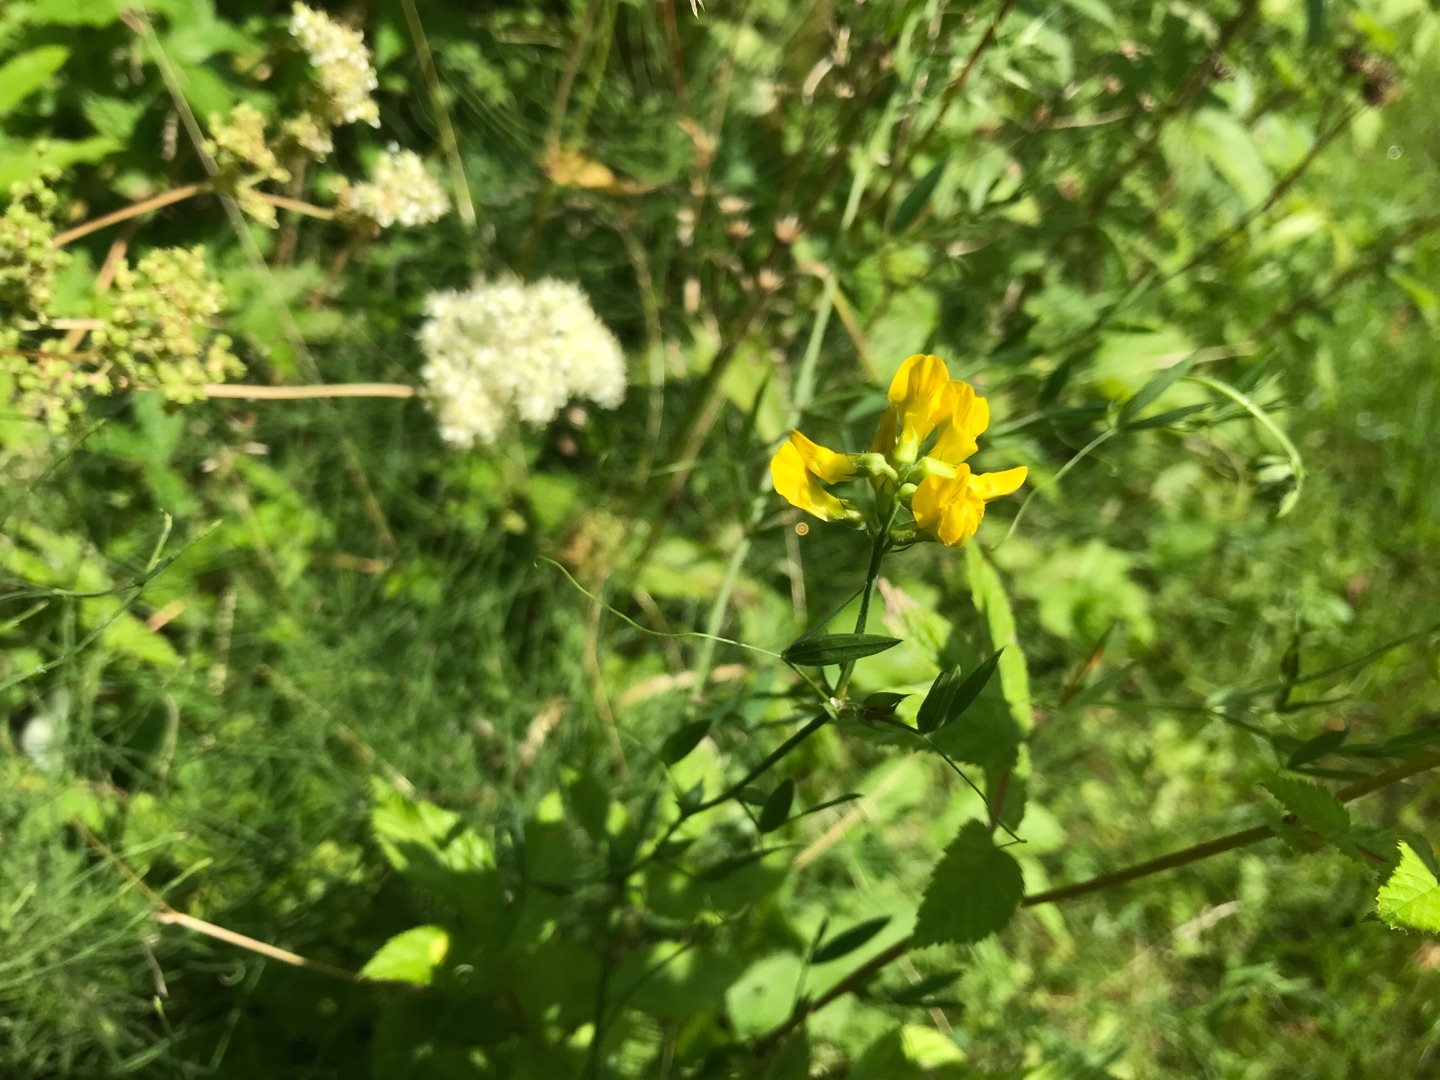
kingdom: Plantae
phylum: Tracheophyta
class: Magnoliopsida
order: Fabales
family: Fabaceae
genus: Lathyrus
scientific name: Lathyrus pratensis
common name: Gul fladbælg
